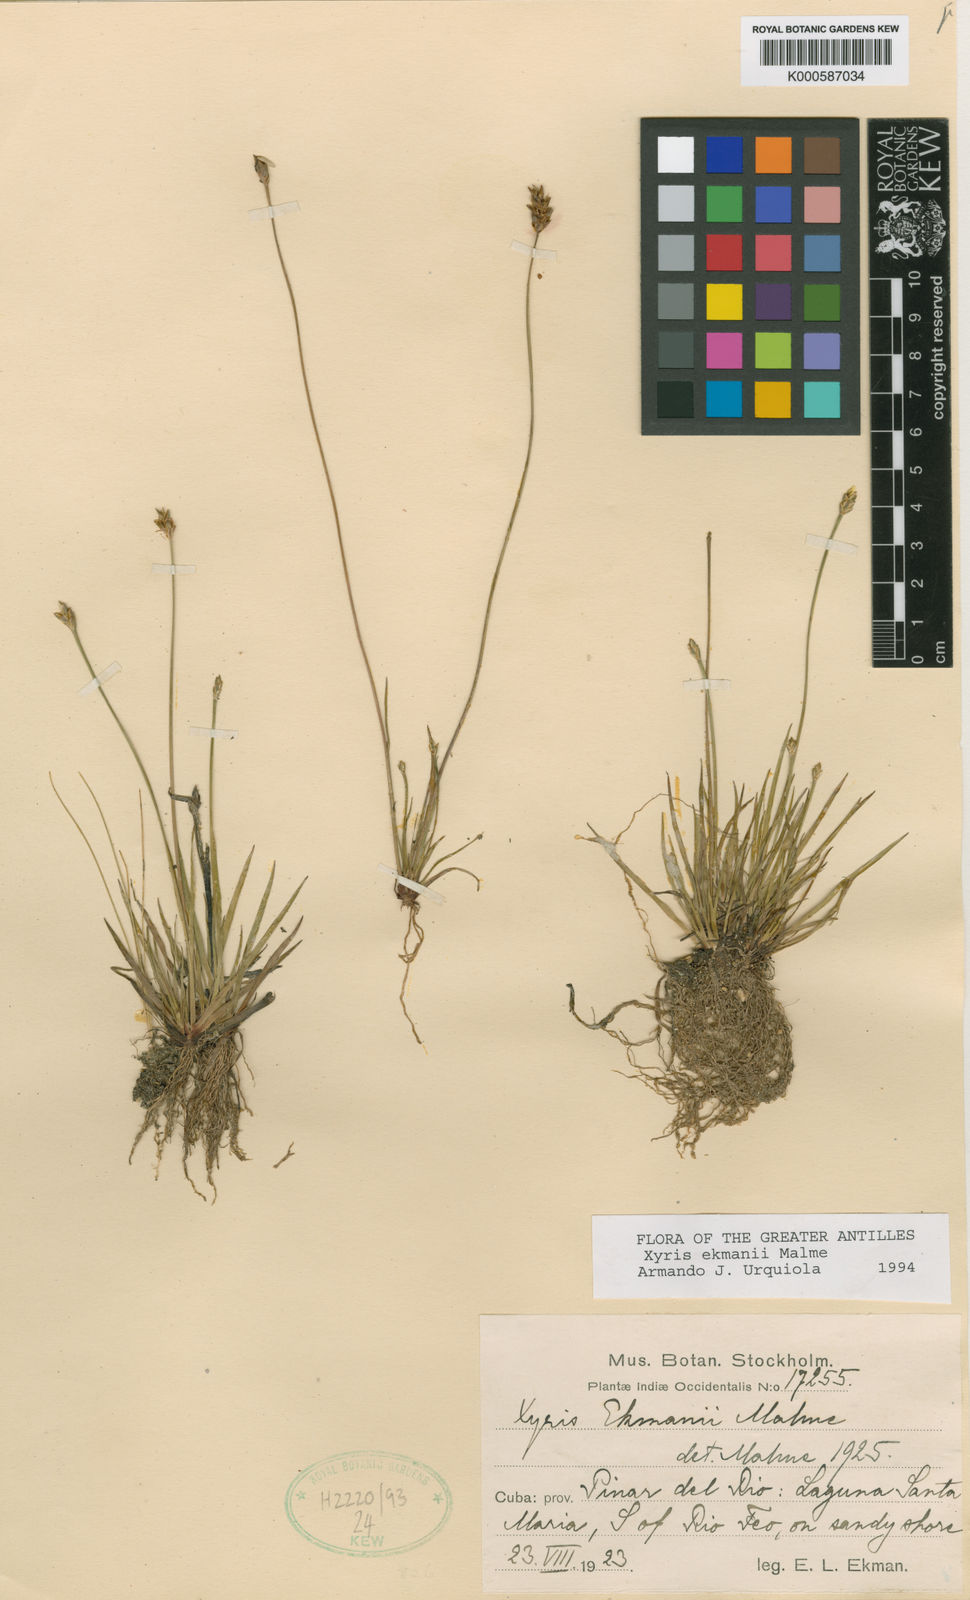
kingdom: Plantae
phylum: Tracheophyta
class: Liliopsida
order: Poales
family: Xyridaceae
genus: Xyris
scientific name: Xyris ekmanii
